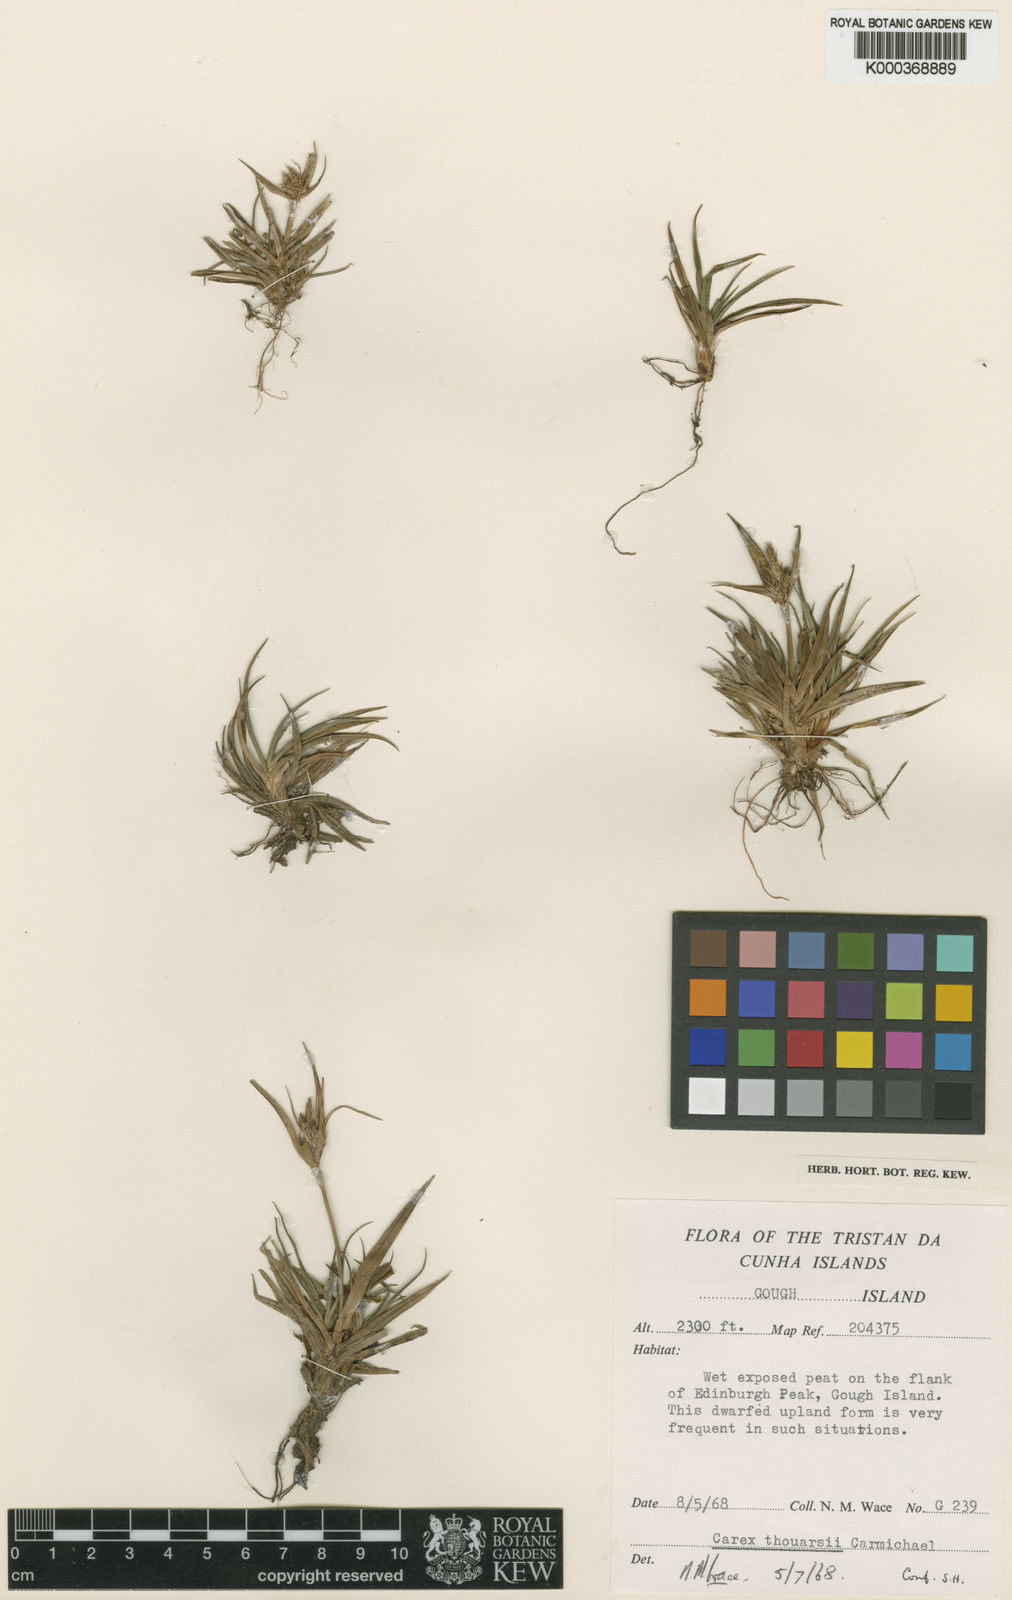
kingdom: Plantae
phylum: Tracheophyta
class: Liliopsida
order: Poales
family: Cyperaceae
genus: Carex
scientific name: Carex thouarsii
